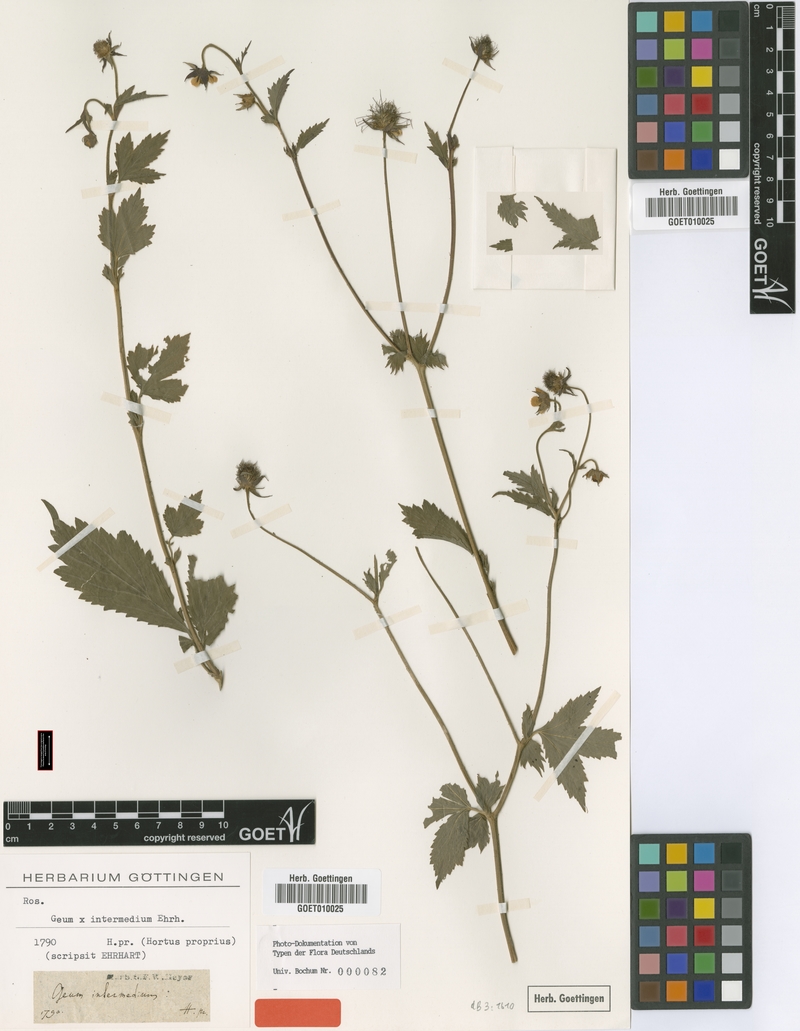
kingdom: Plantae
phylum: Tracheophyta
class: Magnoliopsida
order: Rosales
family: Rosaceae
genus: Geum
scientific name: Geum intermedium
